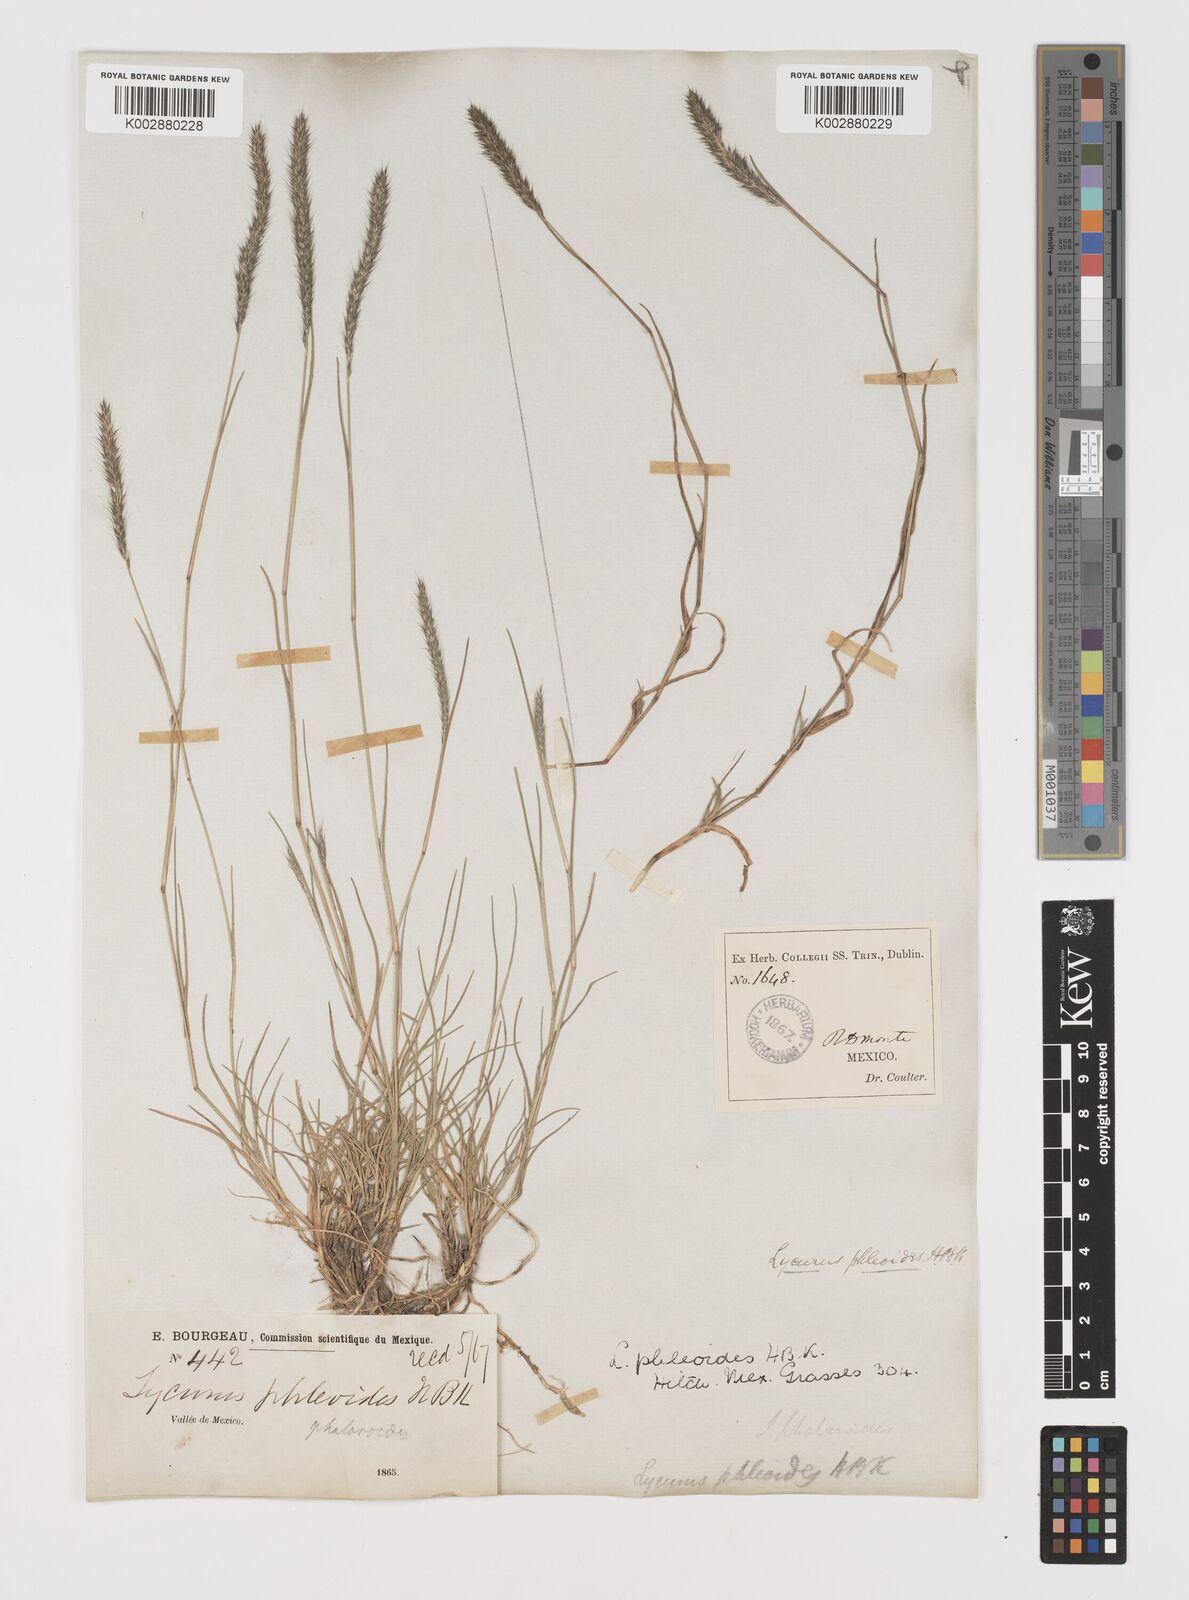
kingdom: Plantae
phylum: Tracheophyta
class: Liliopsida
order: Poales
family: Poaceae
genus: Muhlenbergia
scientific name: Muhlenbergia phleoides
